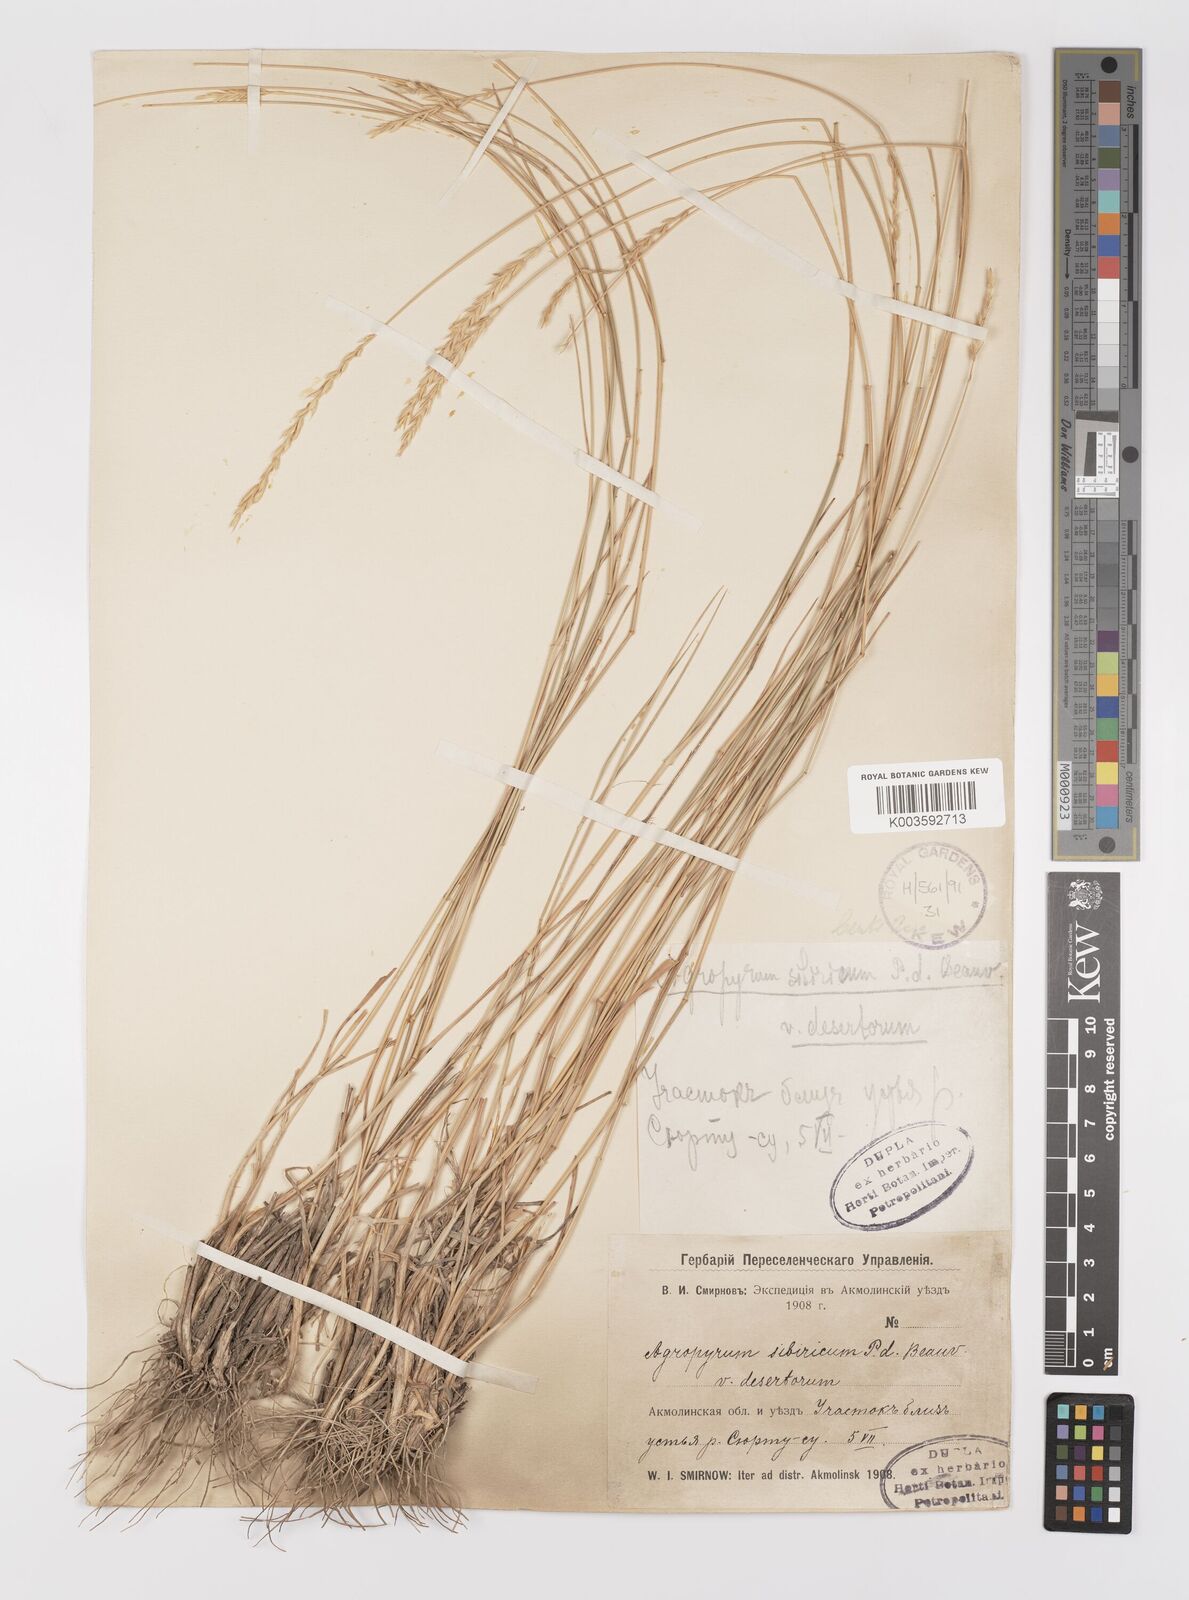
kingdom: Plantae
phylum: Tracheophyta
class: Liliopsida
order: Poales
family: Poaceae
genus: Agropyron
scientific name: Agropyron fragile
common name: Siberian wheatgrass
